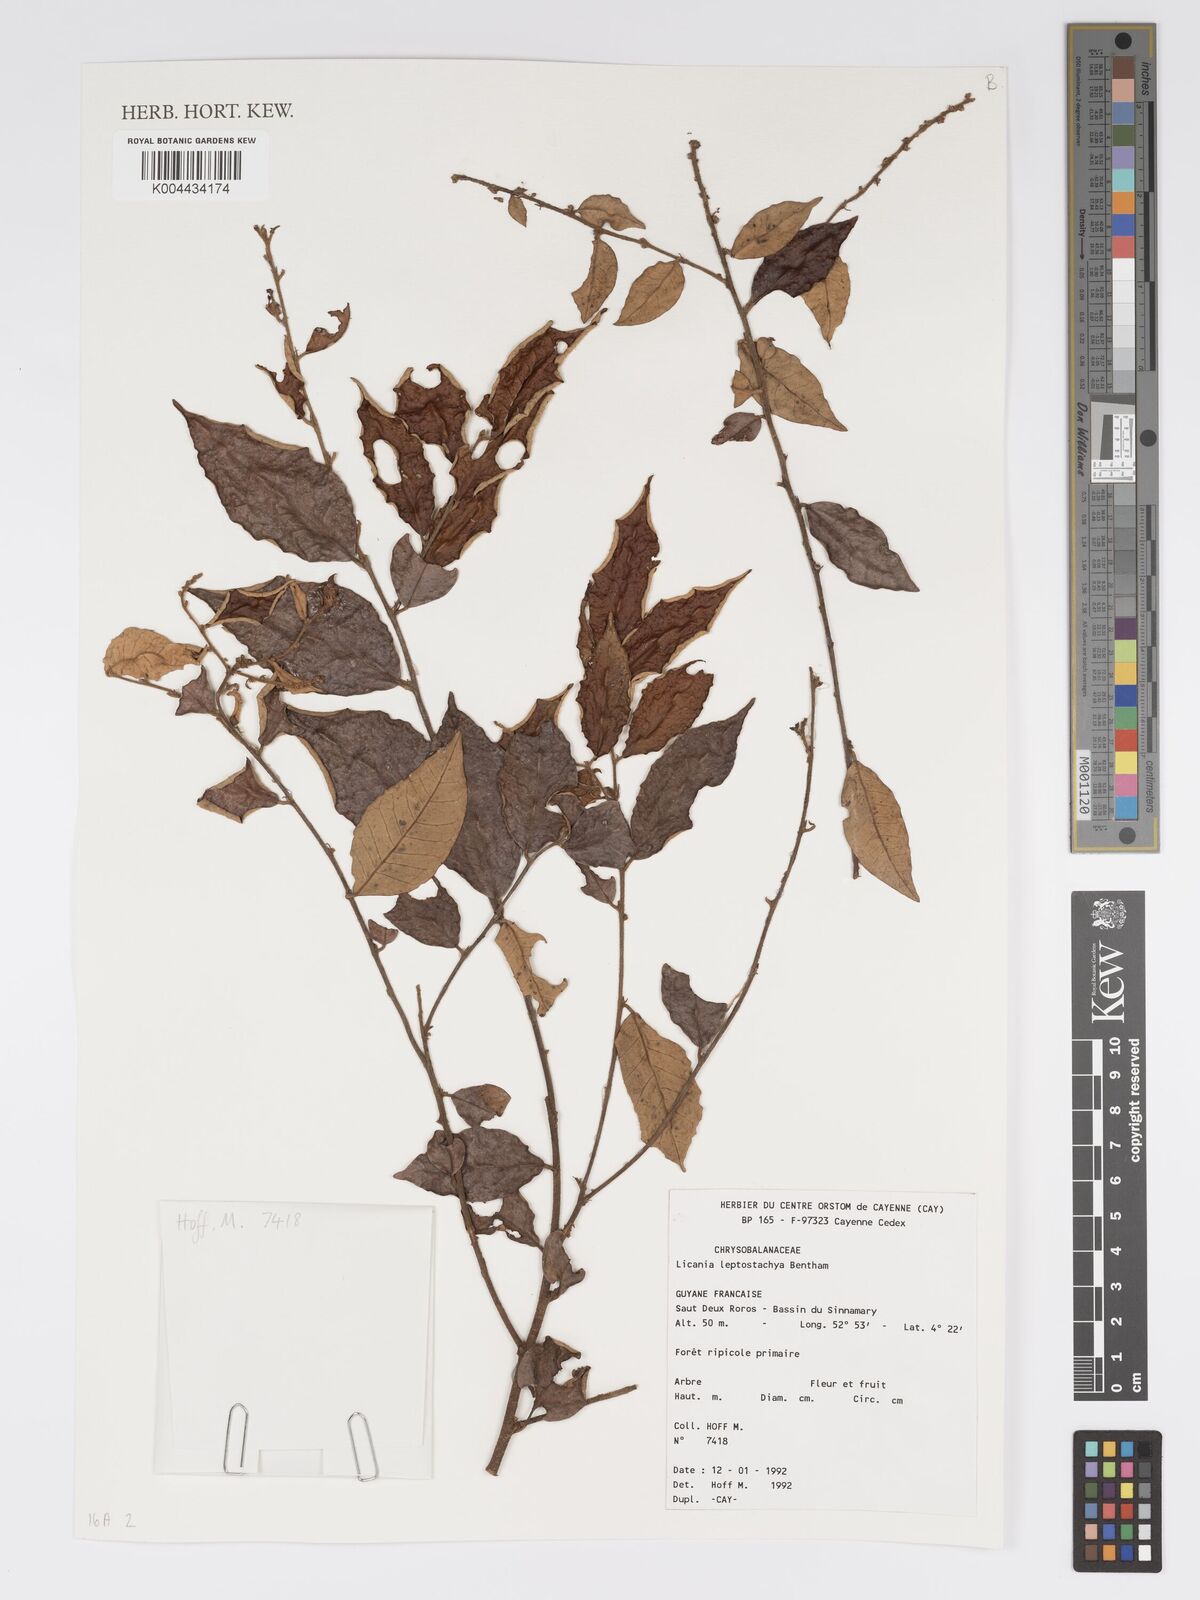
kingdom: Plantae
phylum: Tracheophyta
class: Magnoliopsida
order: Malpighiales
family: Chrysobalanaceae
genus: Licania
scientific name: Licania leptostachya
